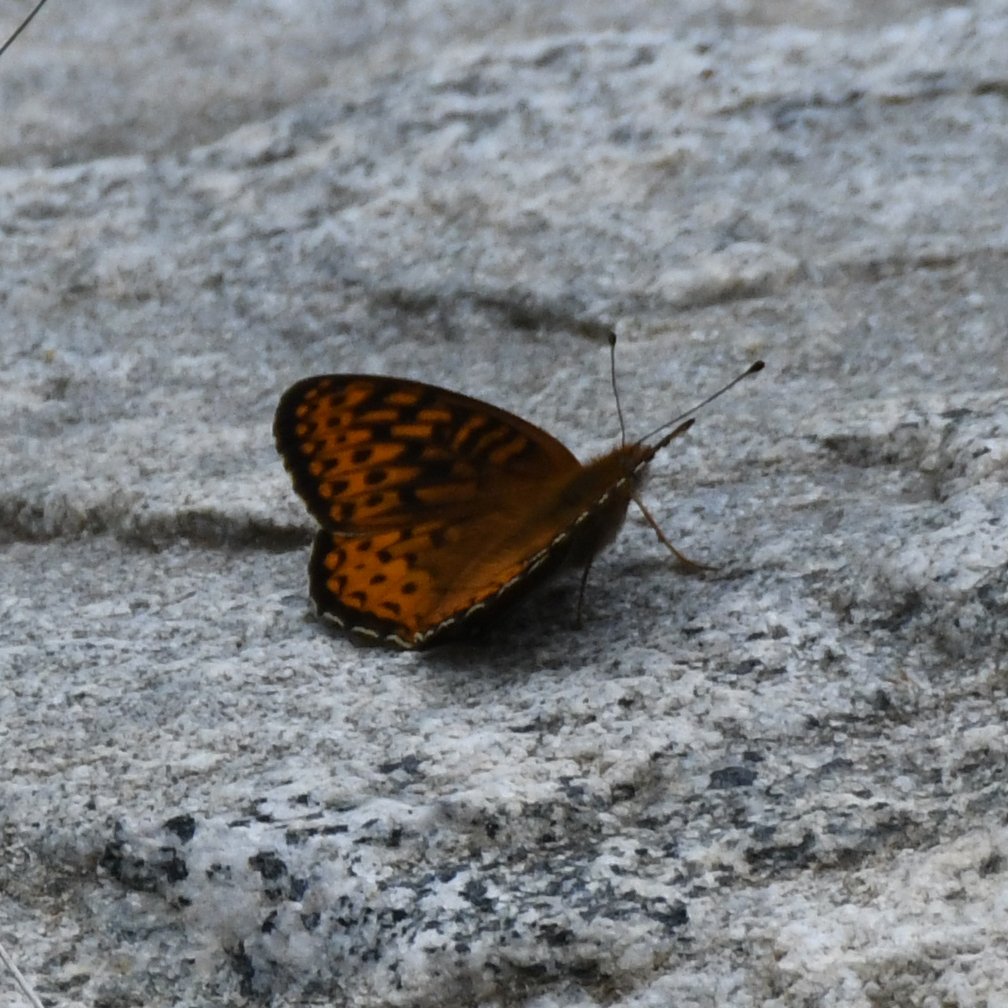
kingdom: Animalia
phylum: Arthropoda
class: Insecta
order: Lepidoptera
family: Nymphalidae
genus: Speyeria
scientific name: Speyeria atlantis
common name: Atlantis Fritillary
